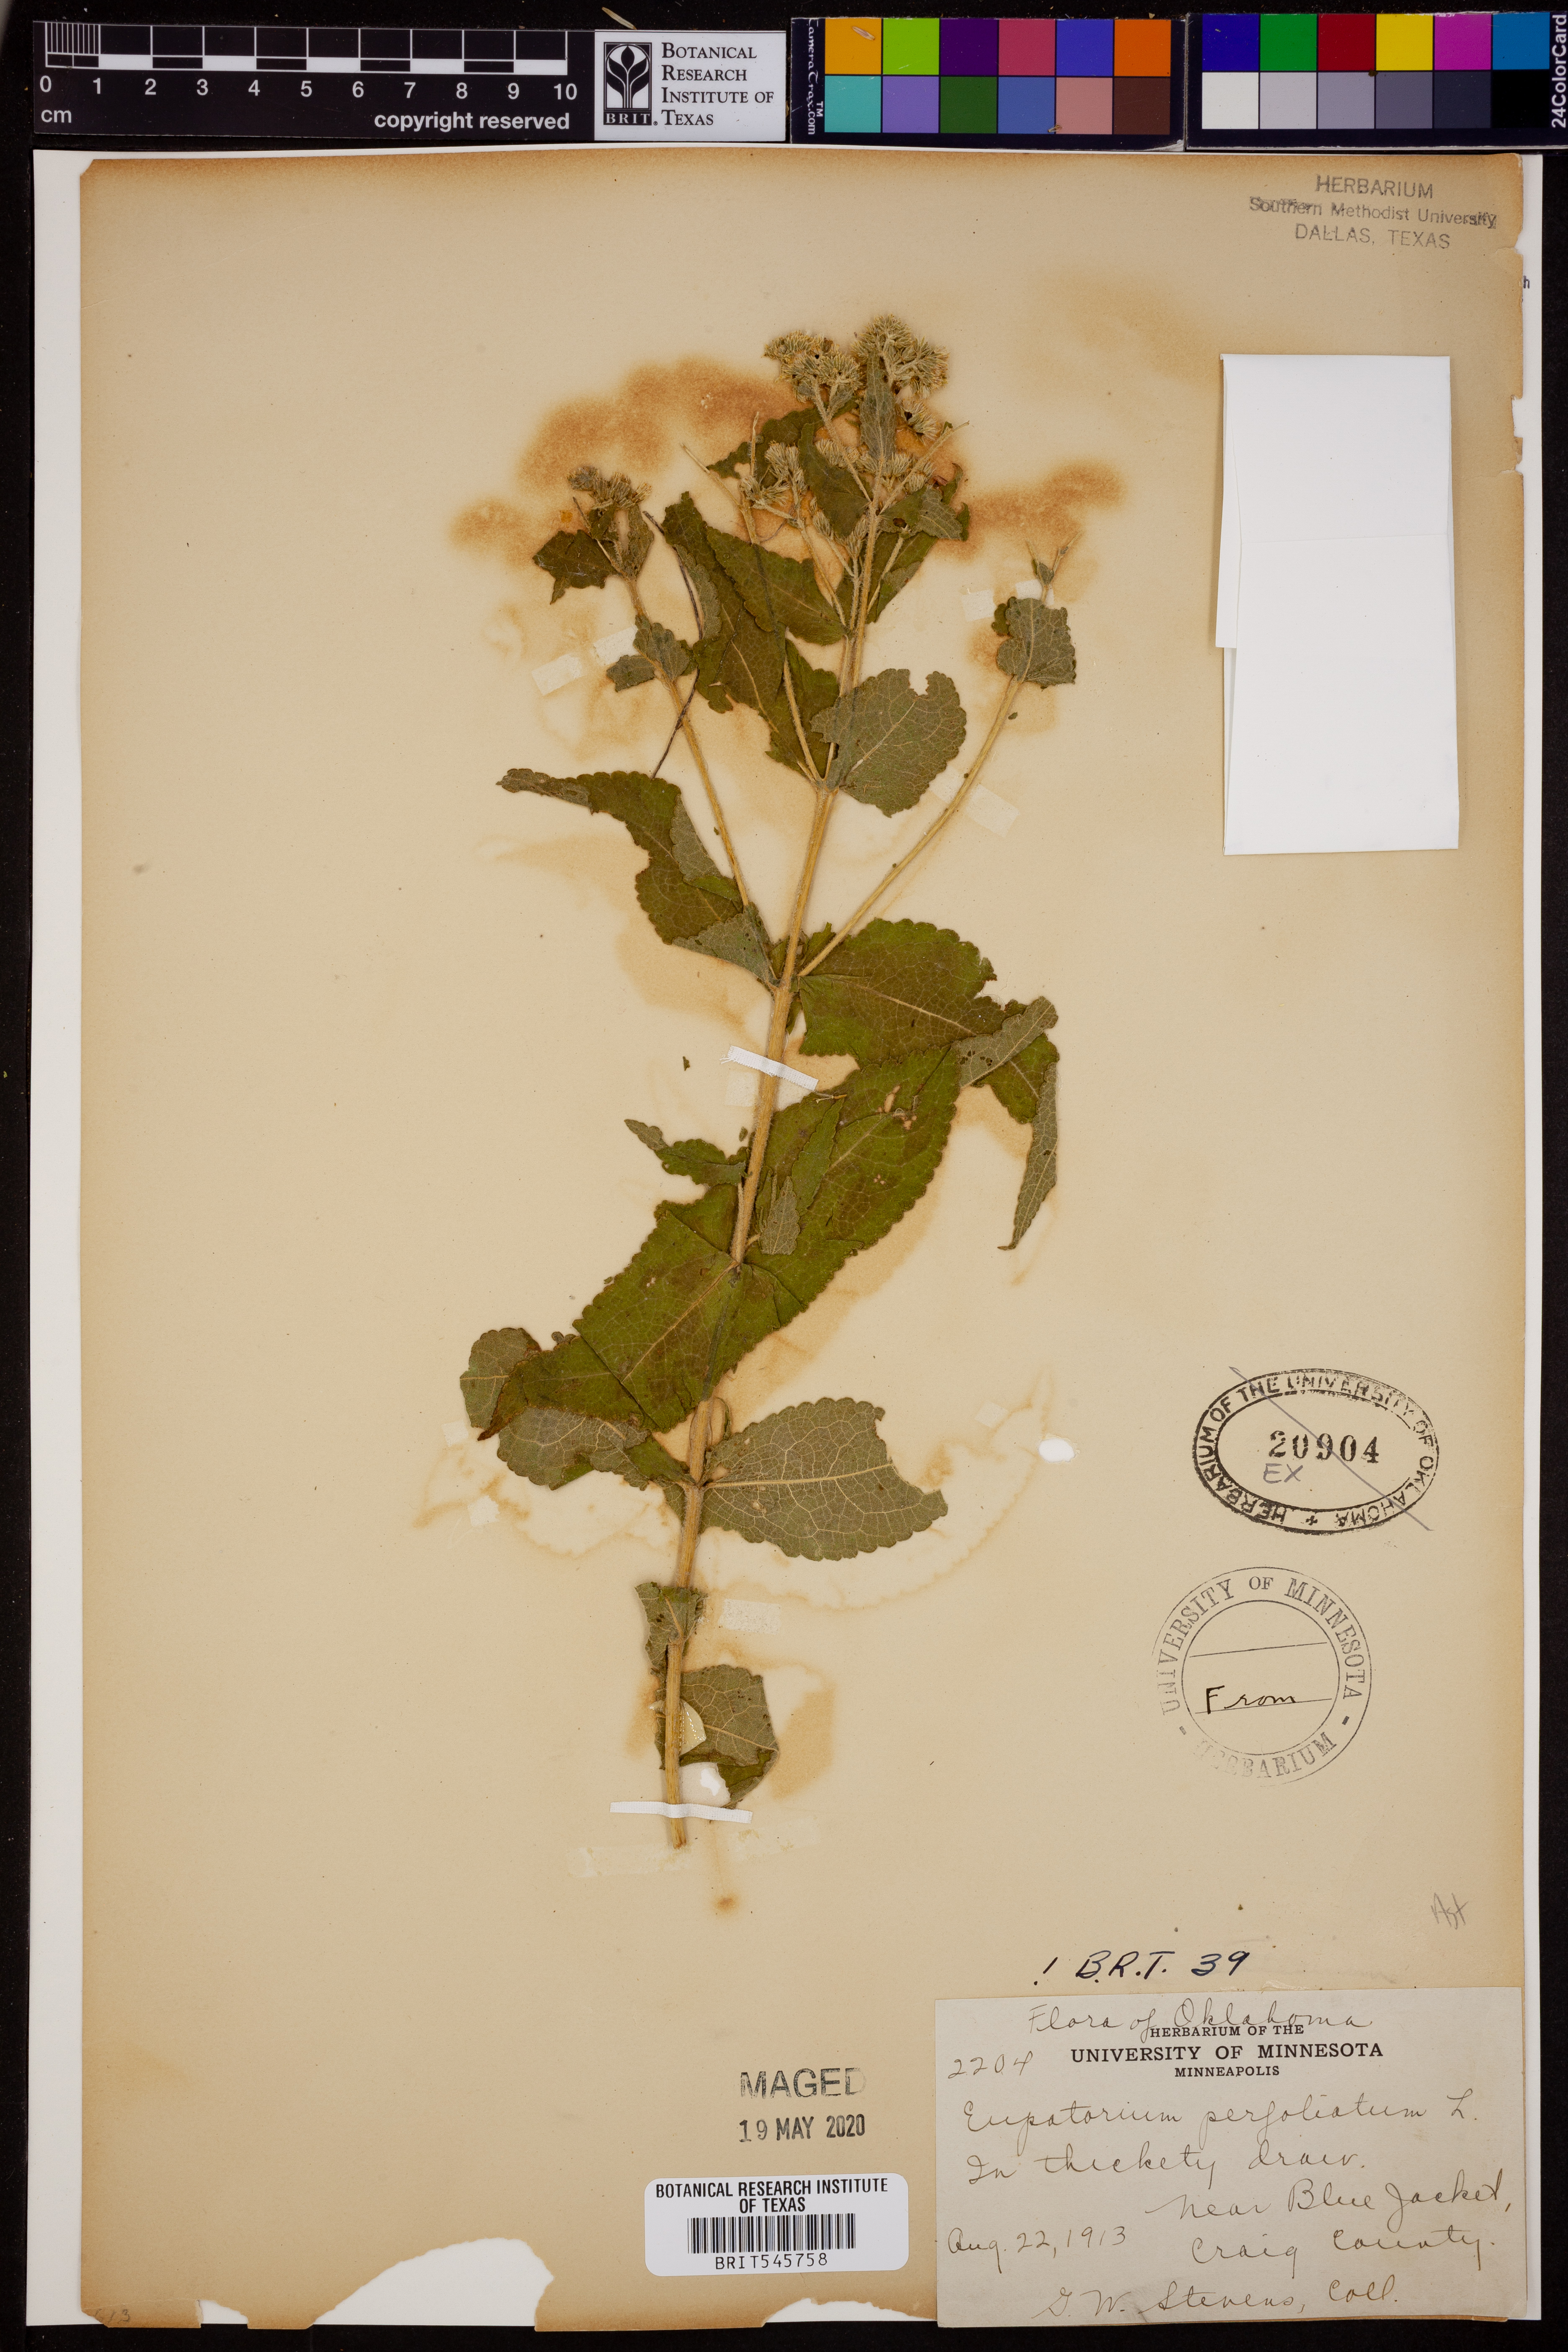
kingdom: Plantae
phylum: Tracheophyta
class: Magnoliopsida
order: Asterales
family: Asteraceae
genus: Eupatorium
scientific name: Eupatorium perfoliatum
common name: Boneset
